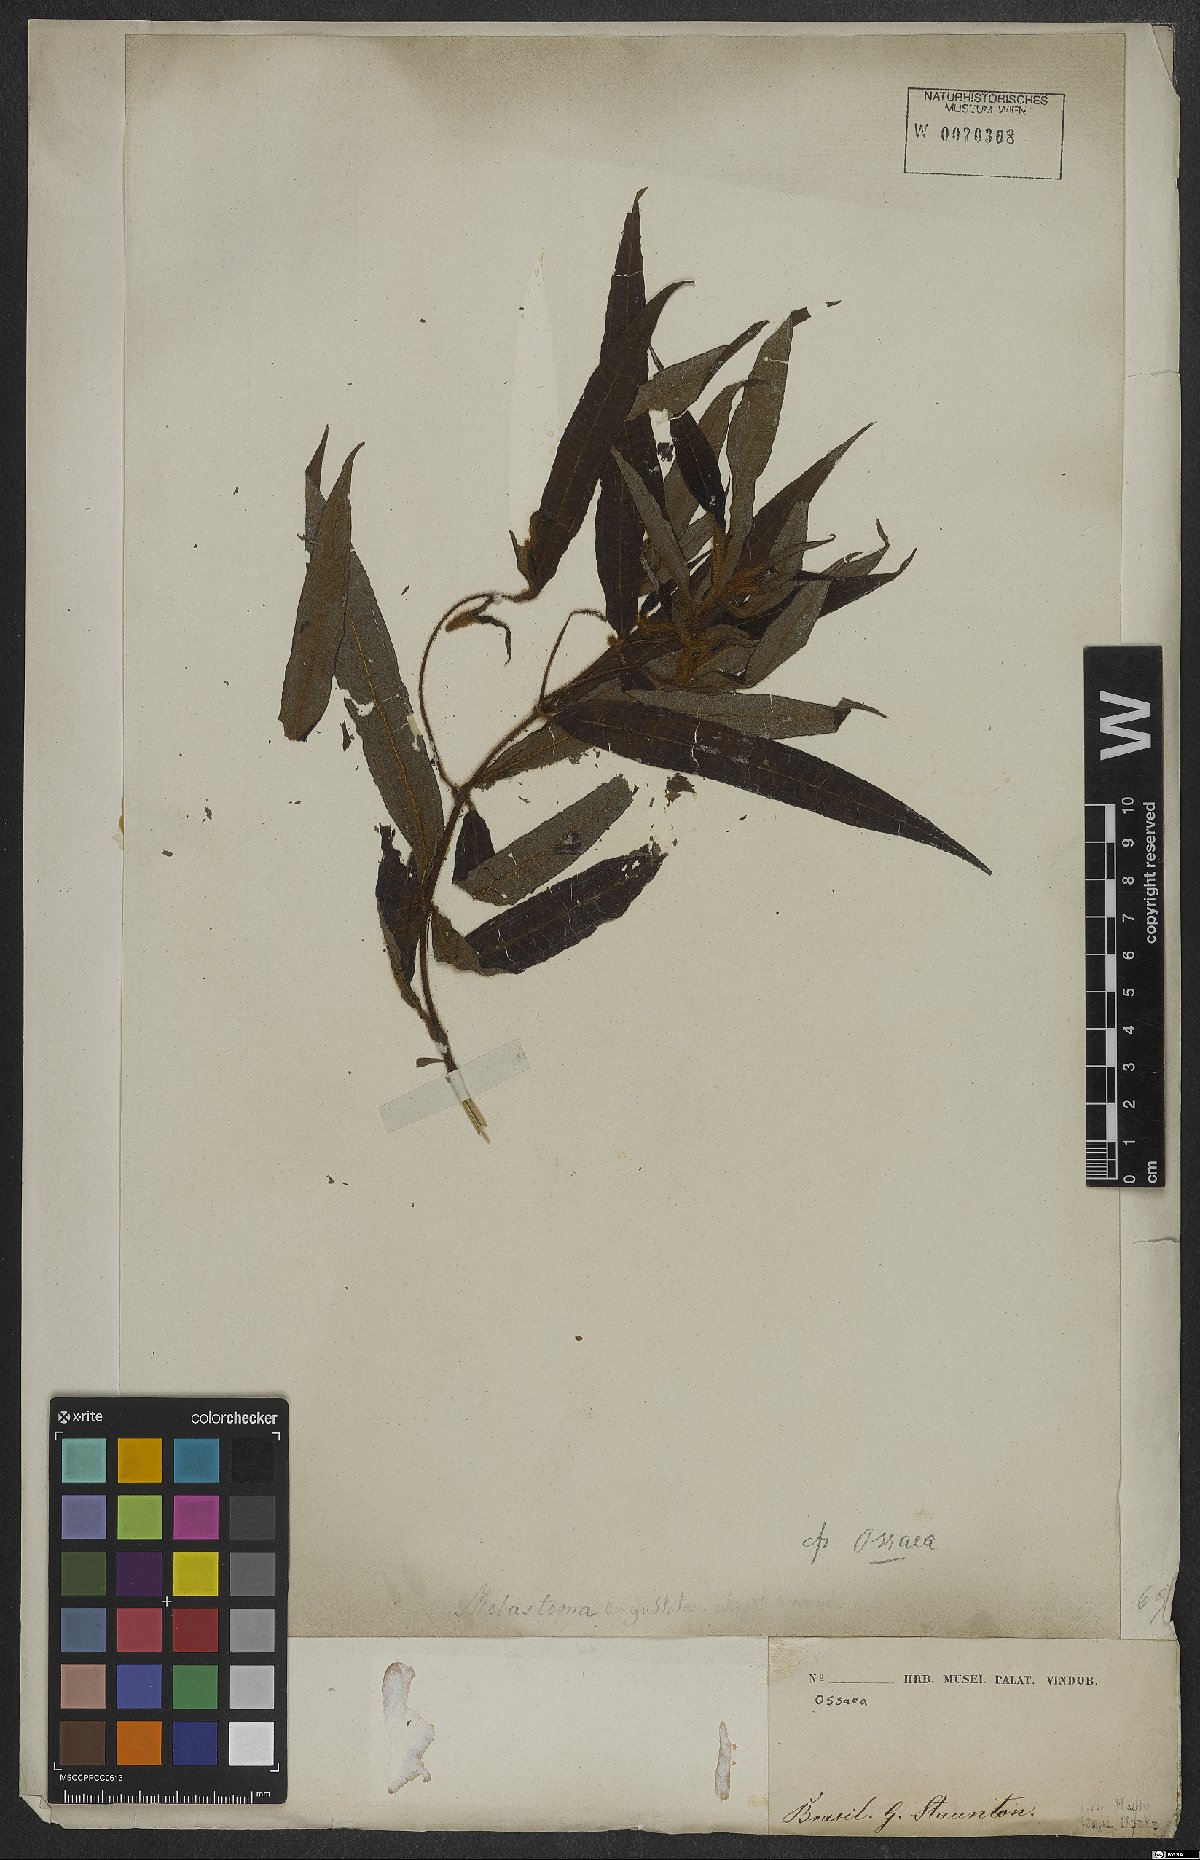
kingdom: Plantae
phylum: Tracheophyta
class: Magnoliopsida
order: Myrtales
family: Melastomataceae
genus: Ossaea
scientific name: Ossaea
